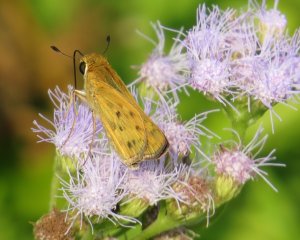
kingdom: Animalia
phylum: Arthropoda
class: Insecta
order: Lepidoptera
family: Hesperiidae
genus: Hylephila
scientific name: Hylephila phyleus
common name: Fiery Skipper
